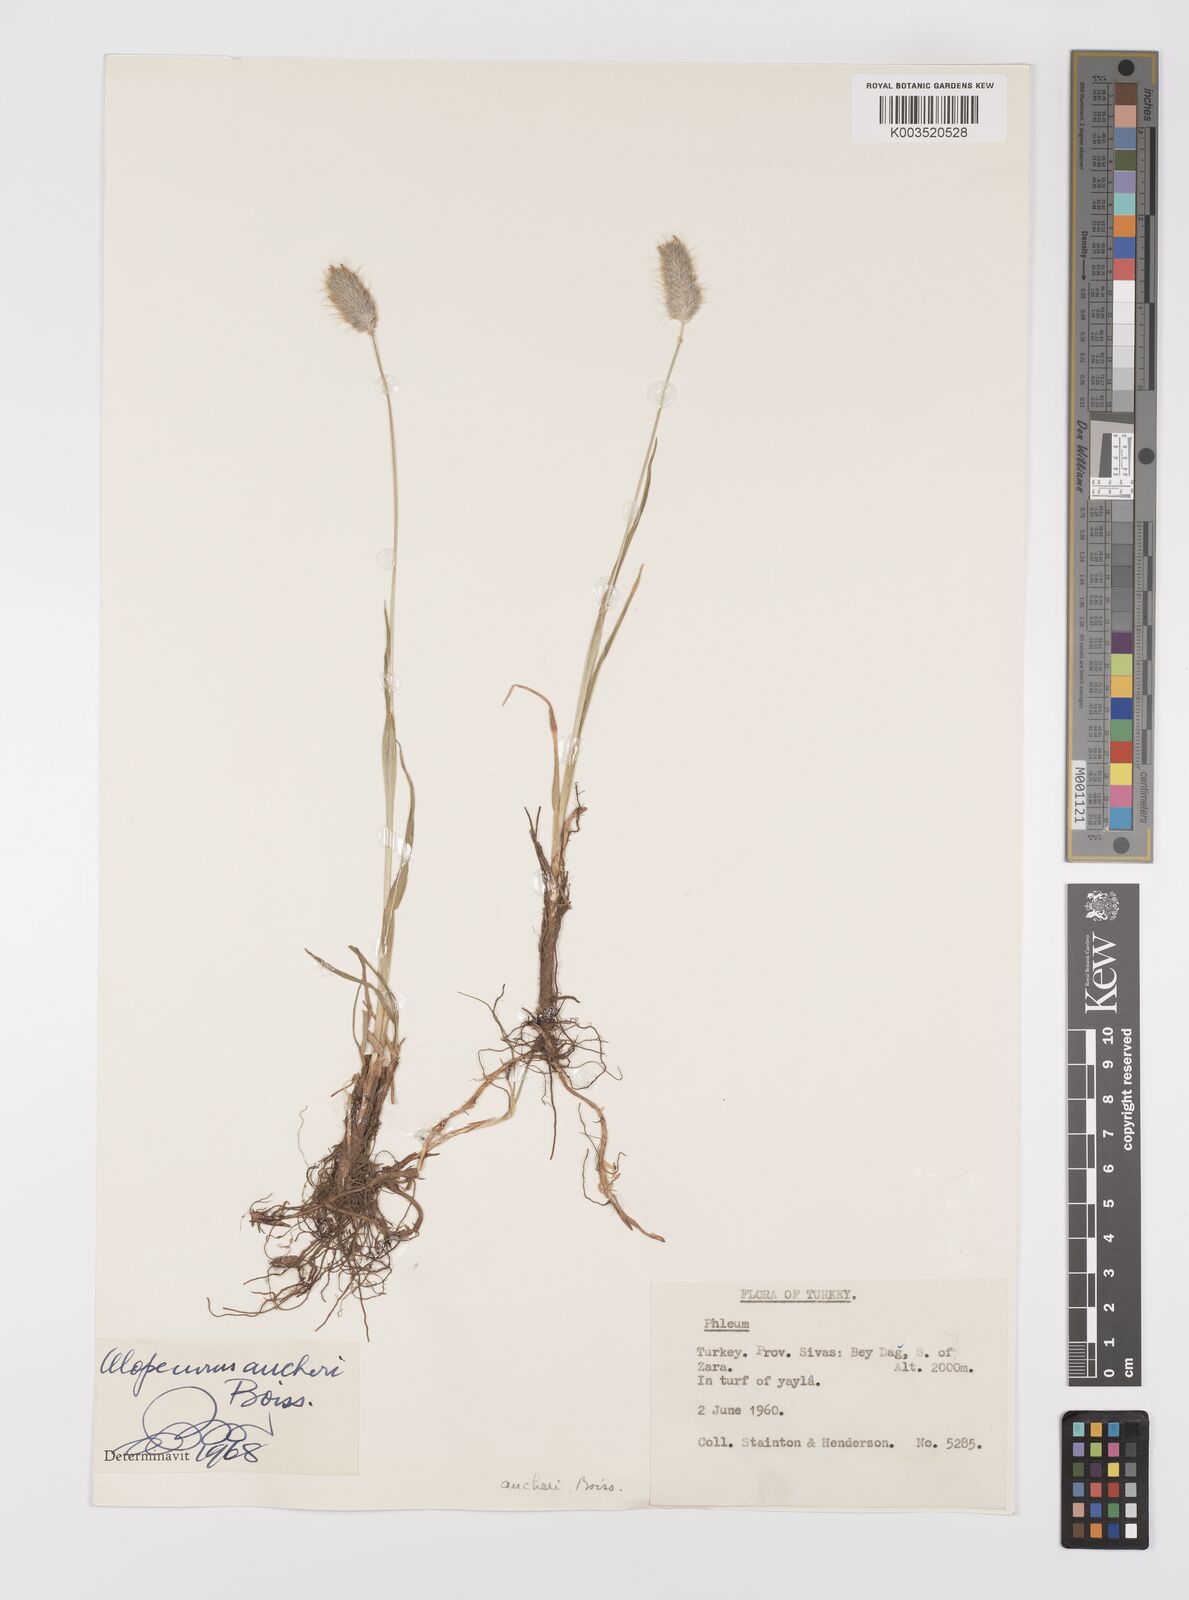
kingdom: Plantae
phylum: Tracheophyta
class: Liliopsida
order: Poales
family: Poaceae
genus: Alopecurus
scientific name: Alopecurus aucheri
